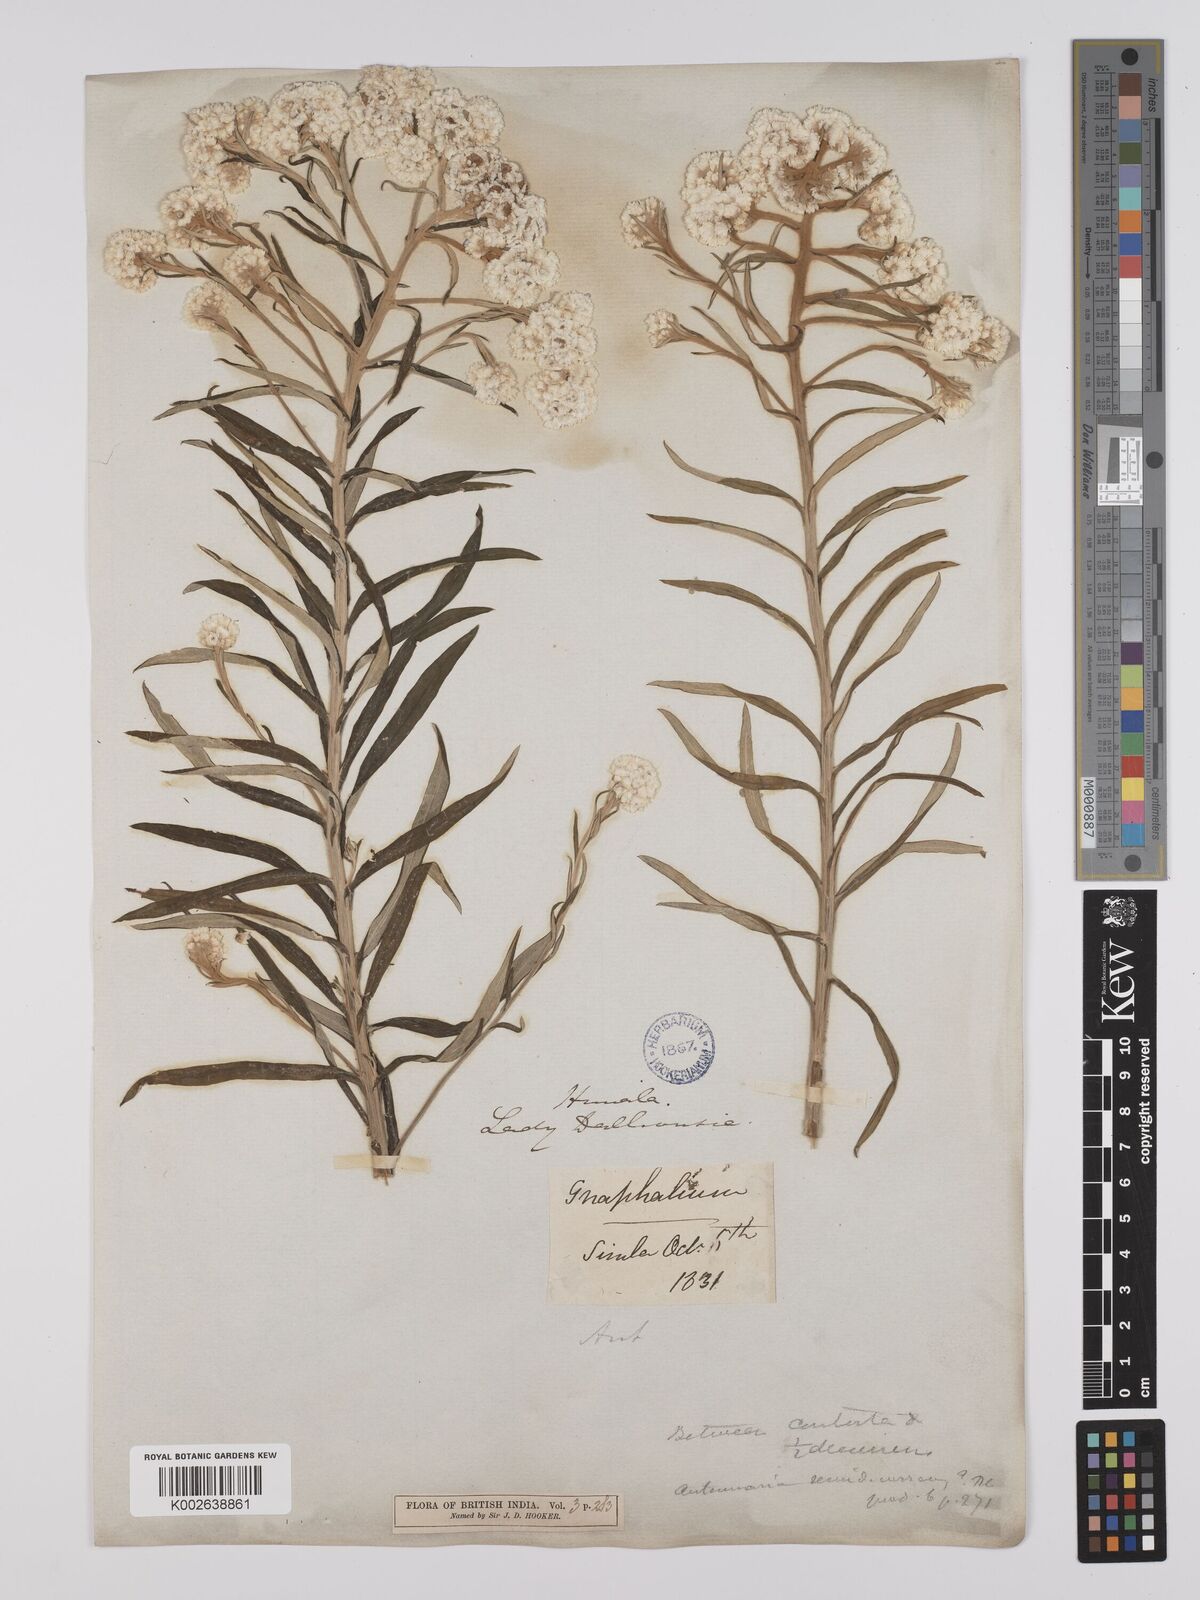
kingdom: Plantae
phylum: Tracheophyta
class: Magnoliopsida
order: Asterales
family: Asteraceae
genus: Anaphalis
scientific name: Anaphalis busua
